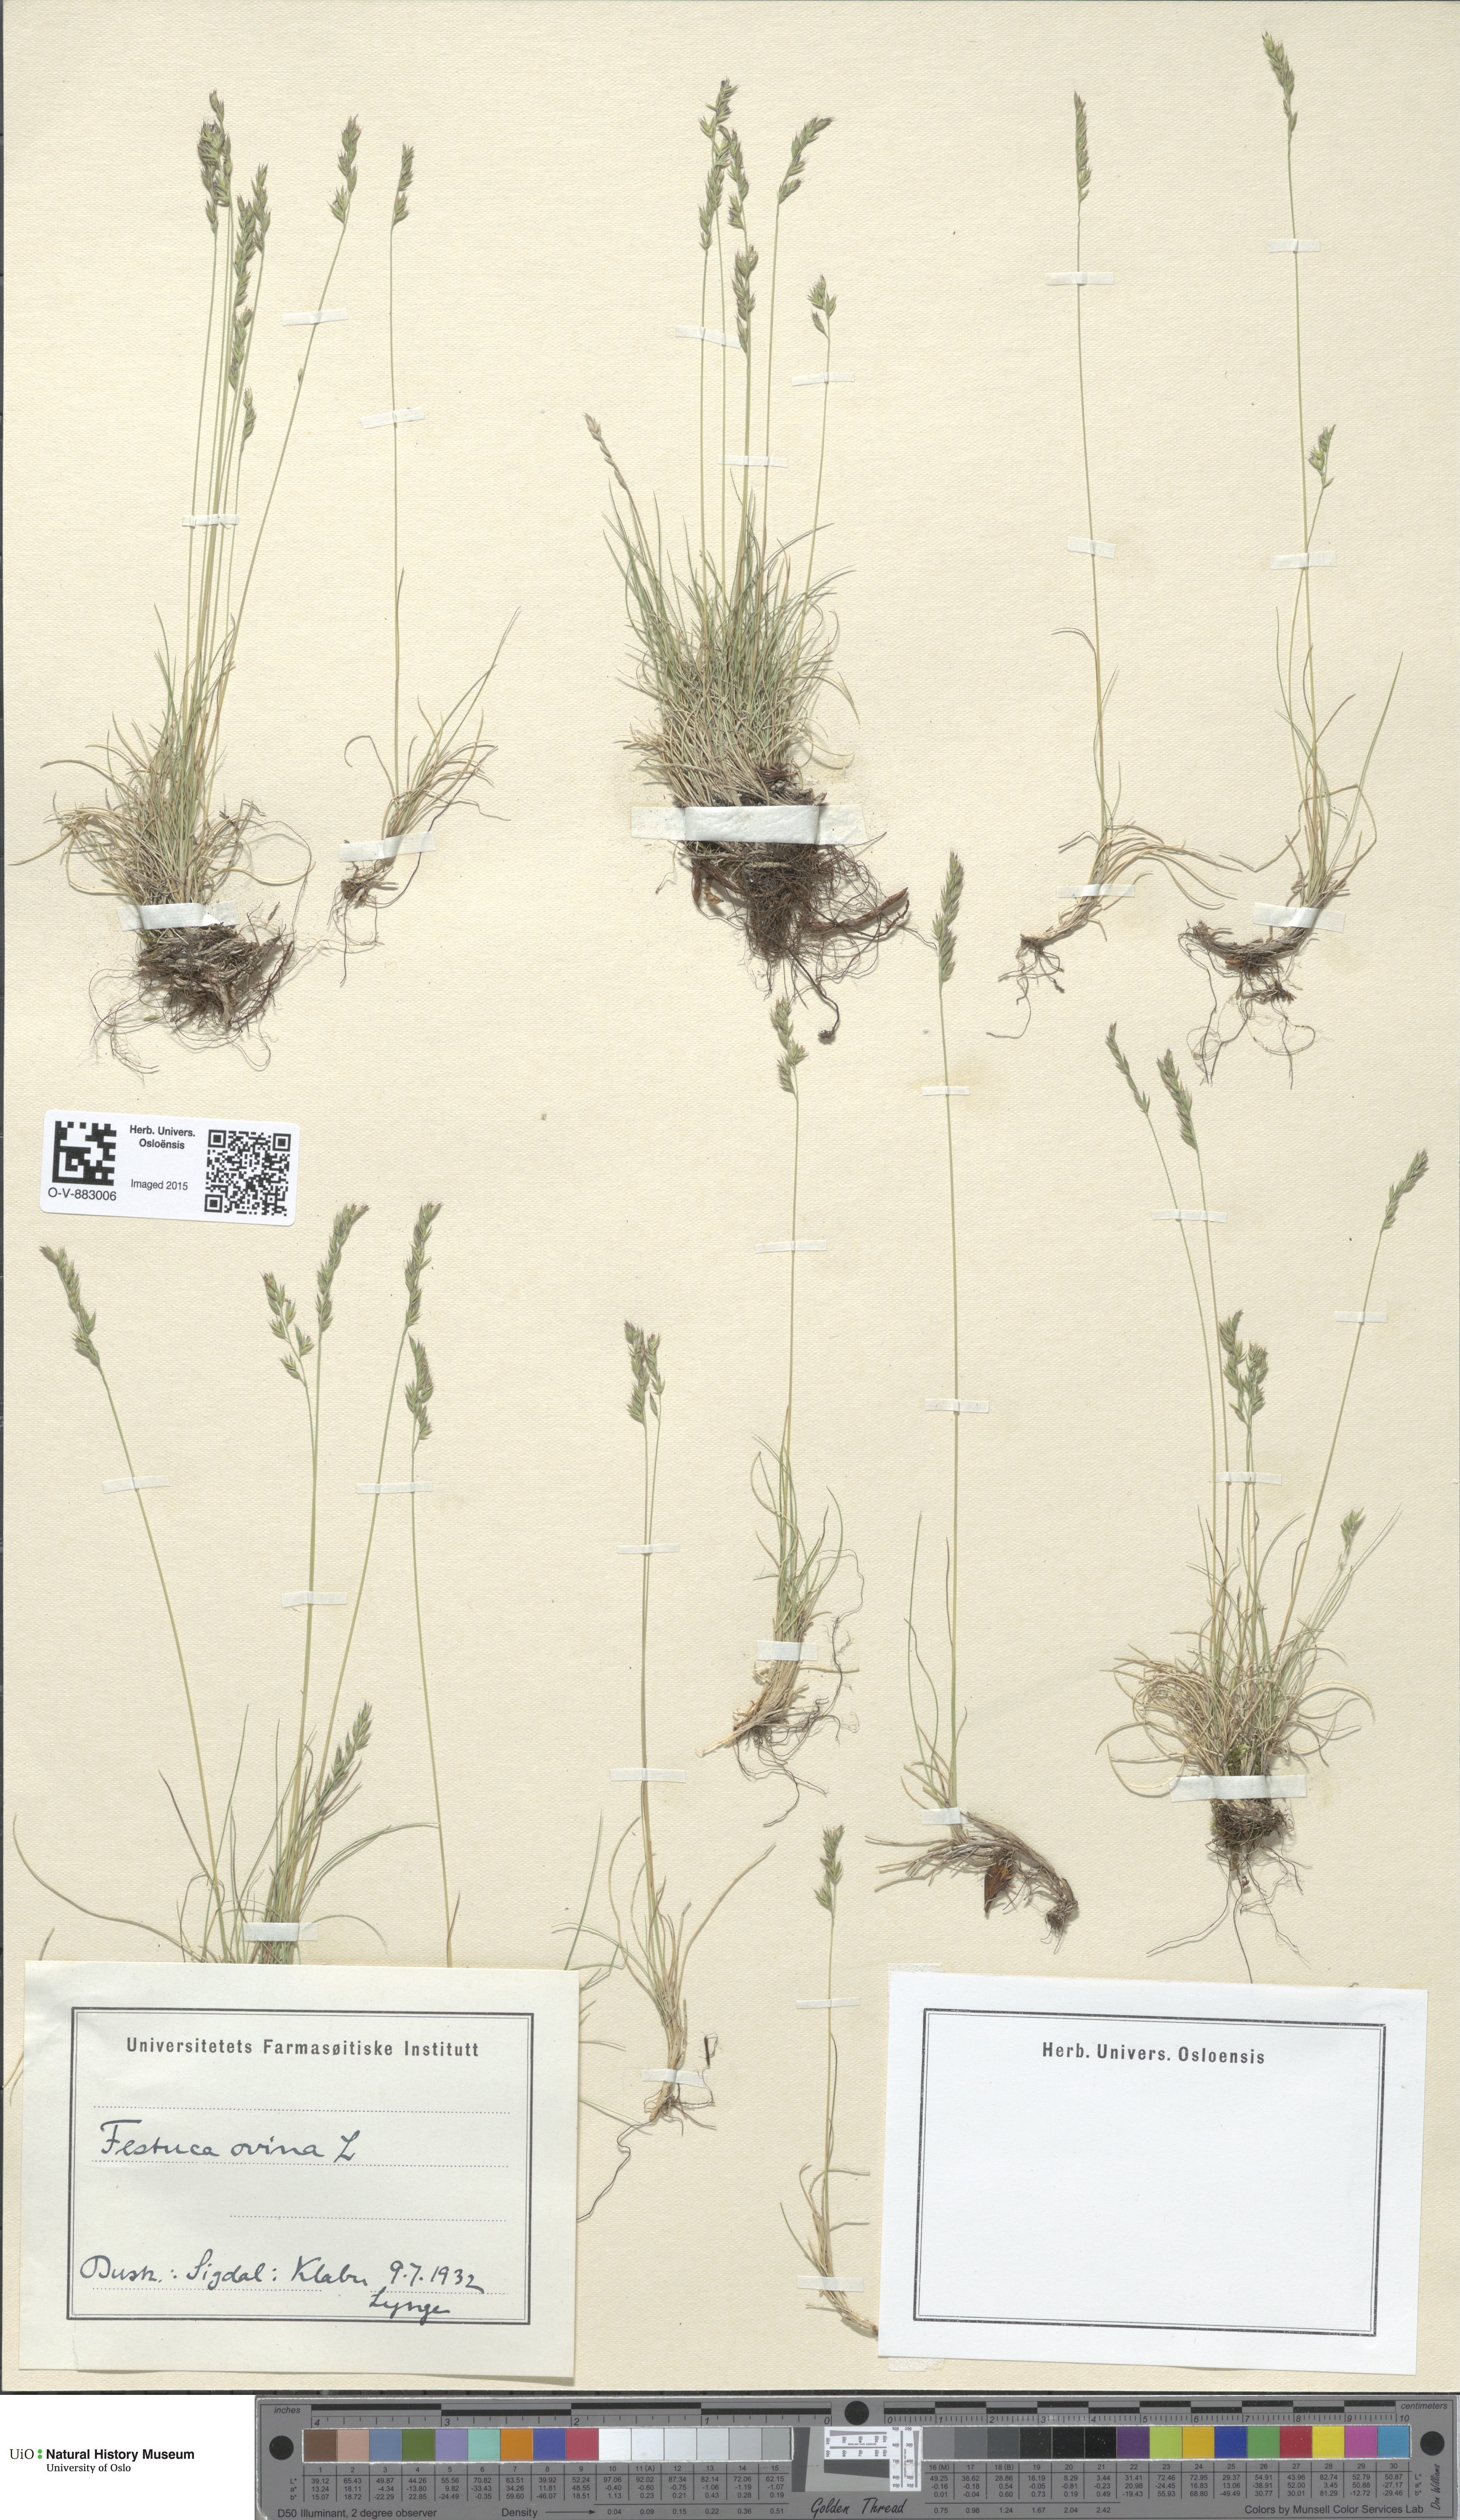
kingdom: Plantae
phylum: Tracheophyta
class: Liliopsida
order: Poales
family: Poaceae
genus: Festuca
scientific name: Festuca ovina
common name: Sheep fescue
